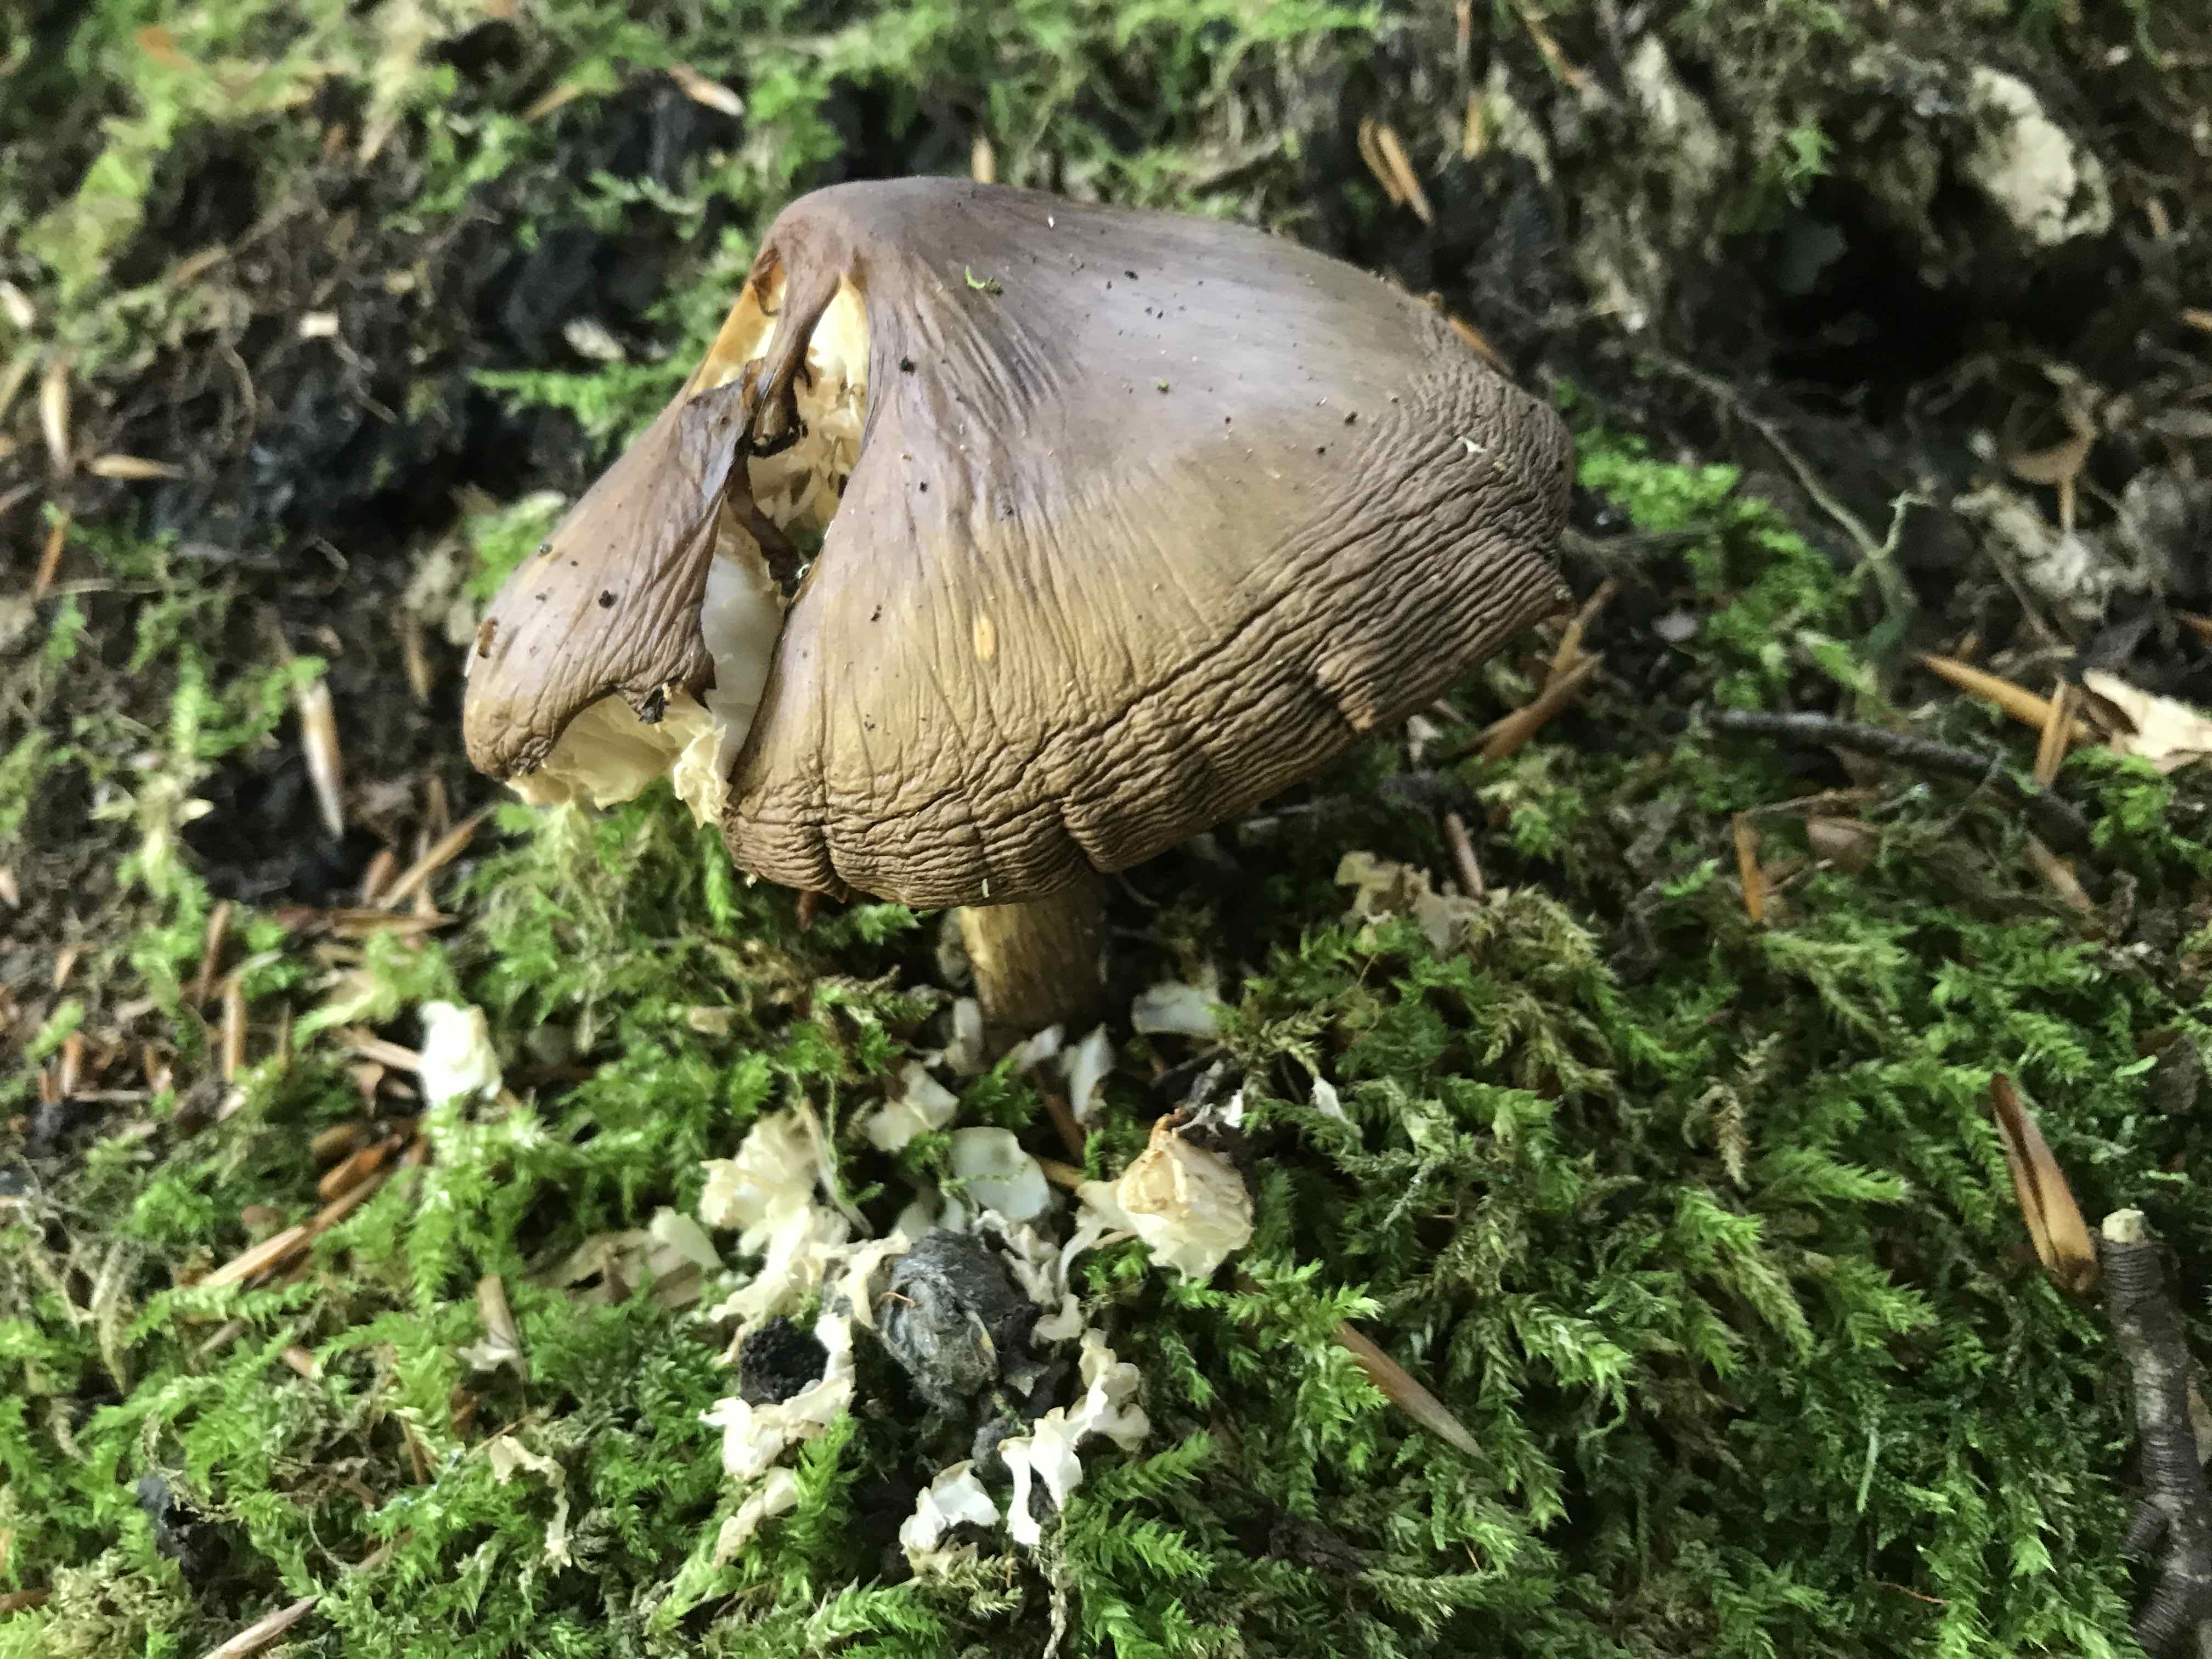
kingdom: Fungi
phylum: Basidiomycota
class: Agaricomycetes
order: Agaricales
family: Pluteaceae
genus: Pluteus
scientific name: Pluteus cervinus
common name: sodfarvet skærmhat
